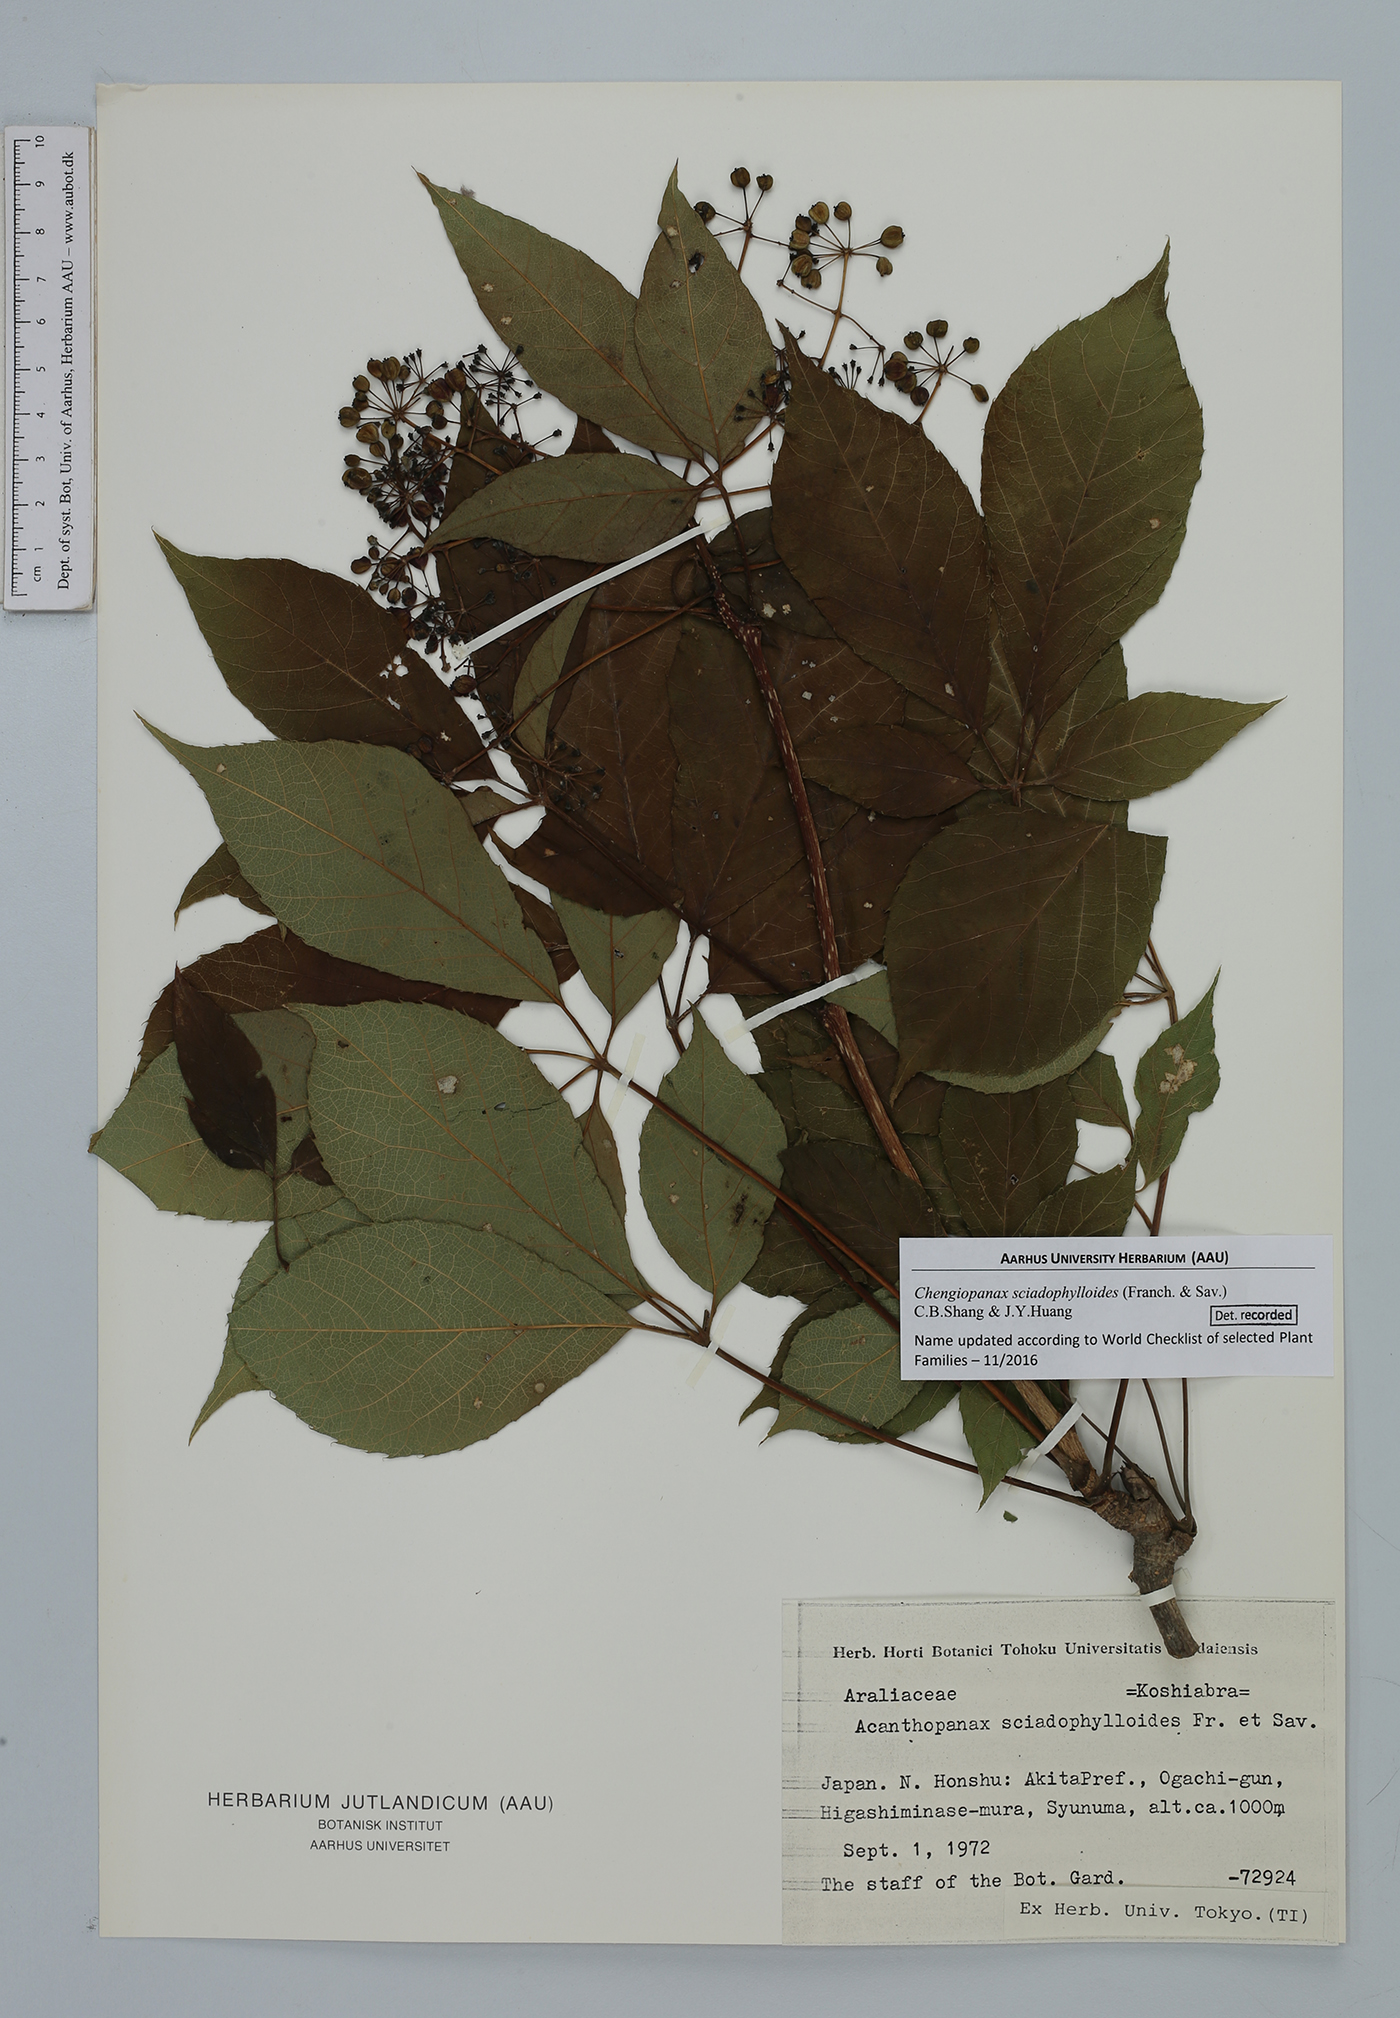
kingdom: Plantae
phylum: Tracheophyta
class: Magnoliopsida
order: Apiales
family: Araliaceae
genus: Chengiopanax
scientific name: Chengiopanax sciadophylloides
